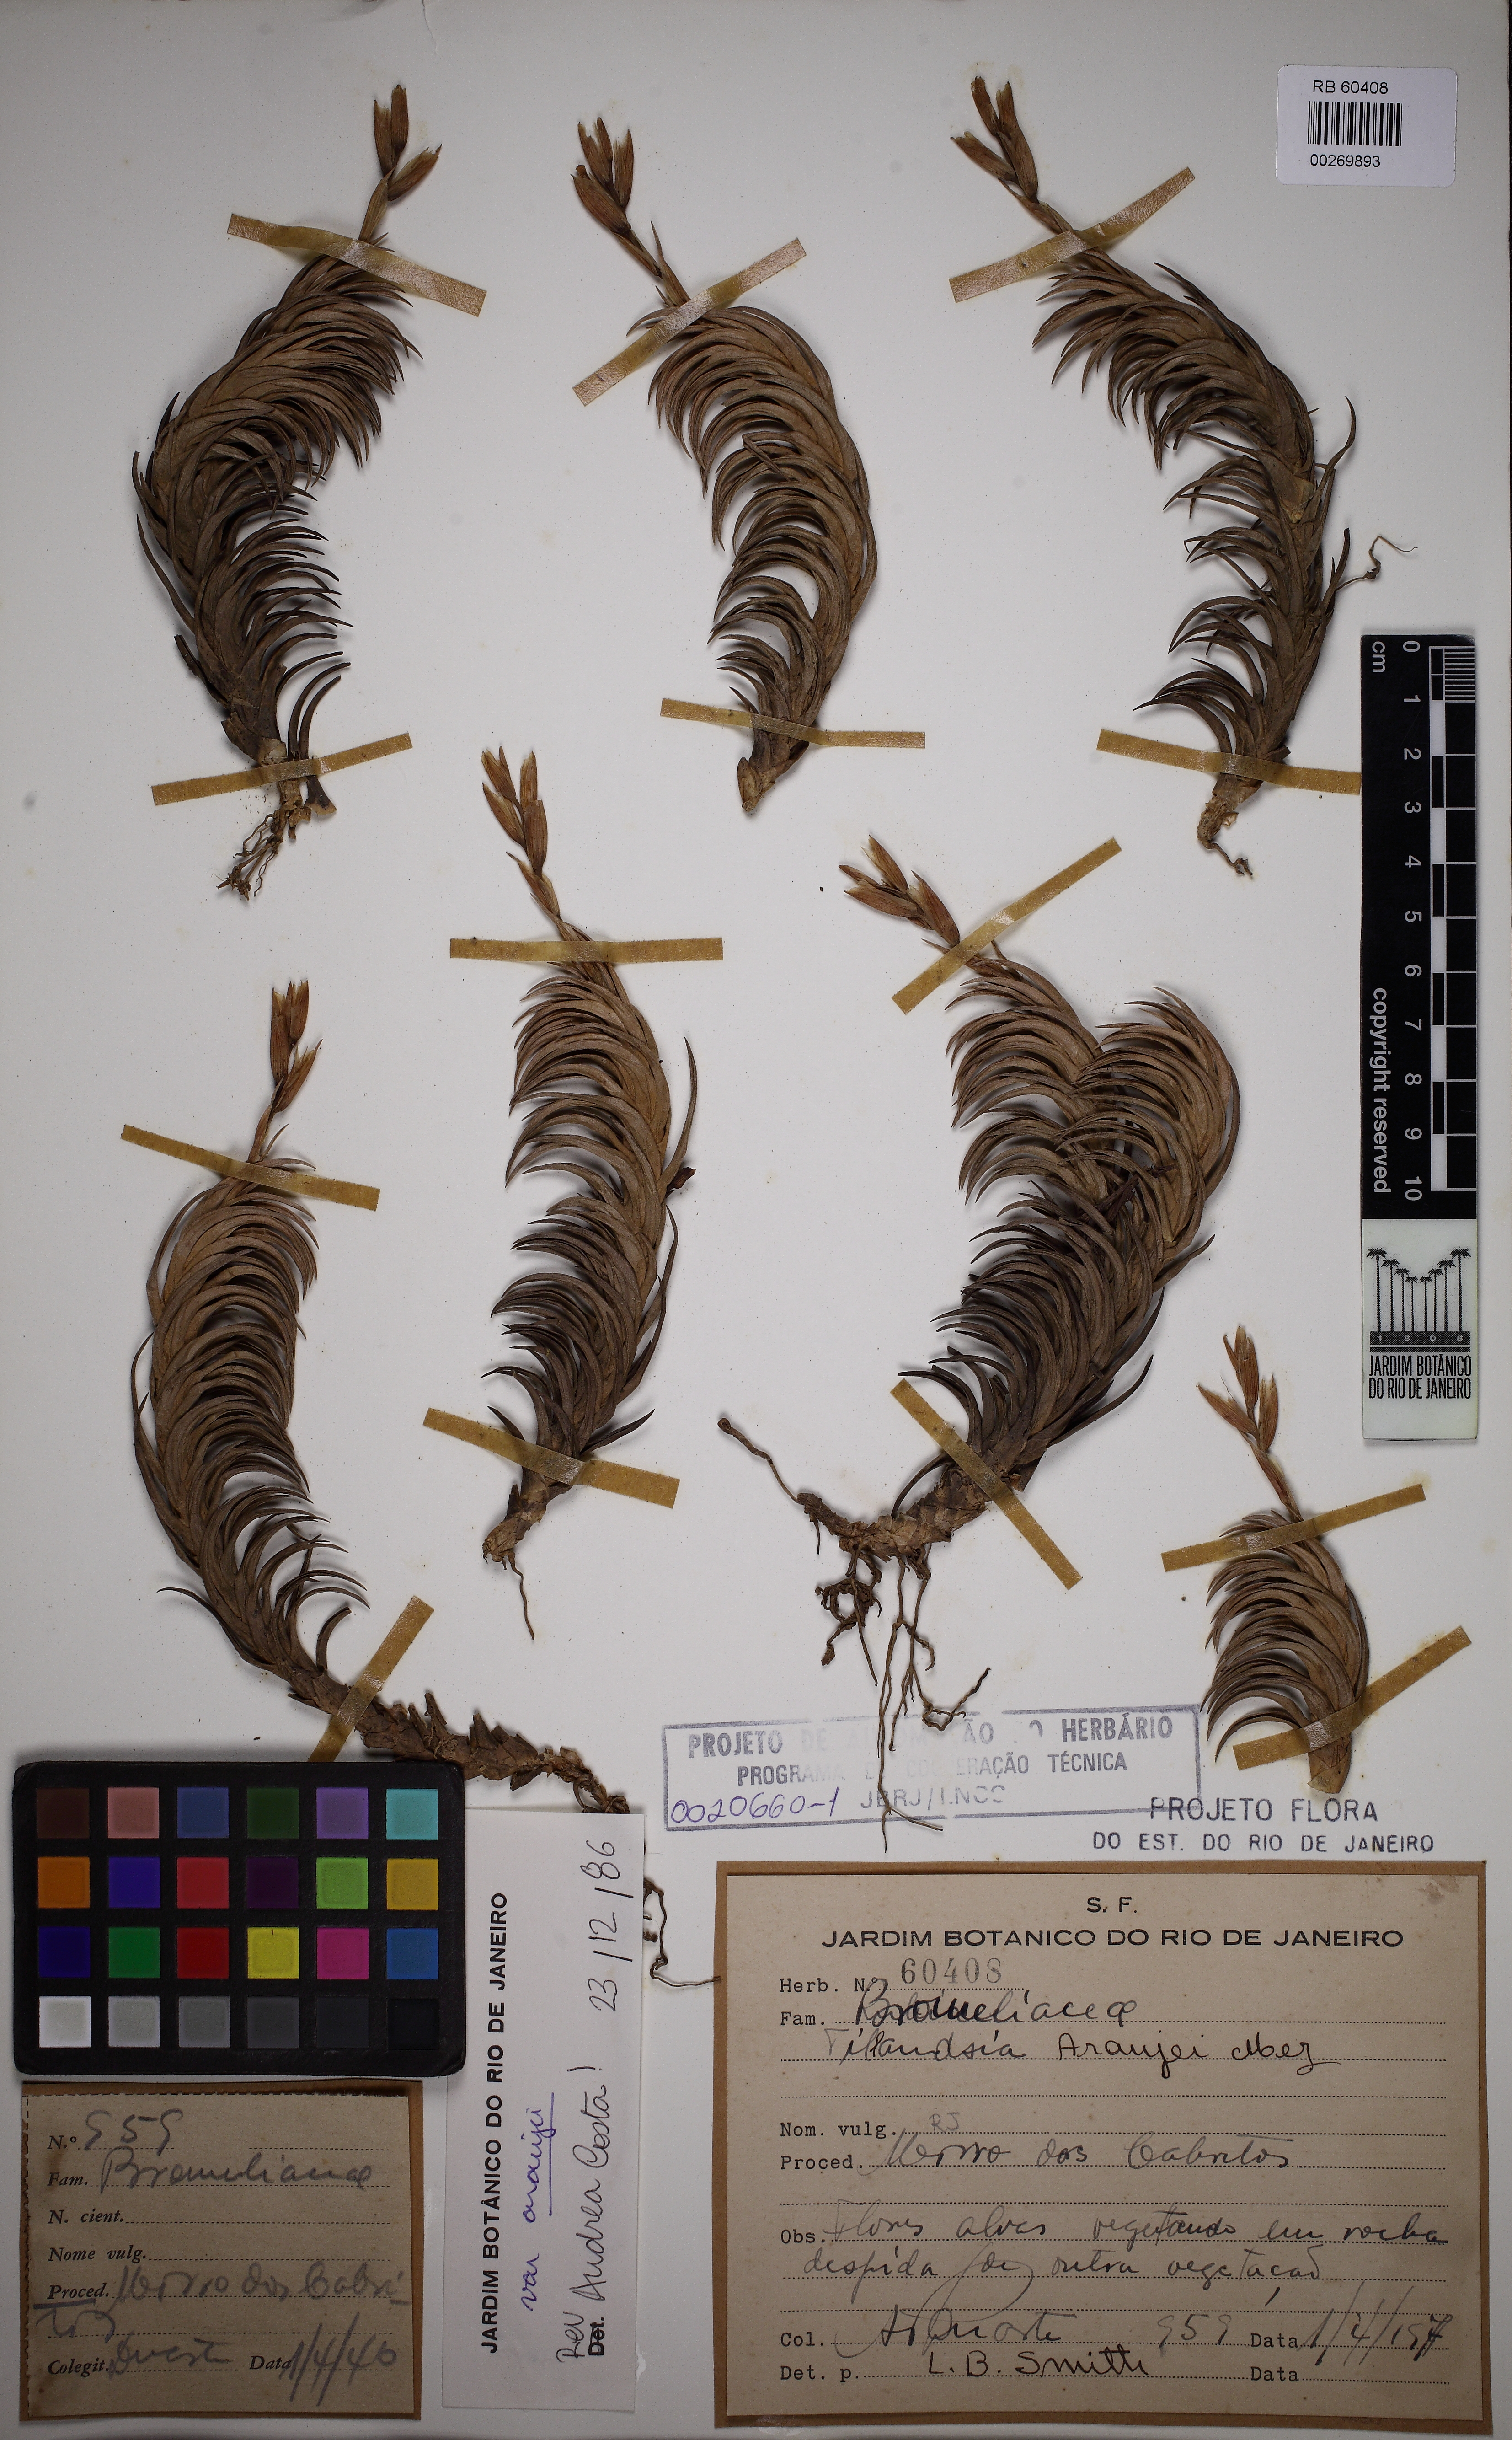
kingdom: Plantae
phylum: Tracheophyta
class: Liliopsida
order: Poales
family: Bromeliaceae
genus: Tillandsia
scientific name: Tillandsia araujei
